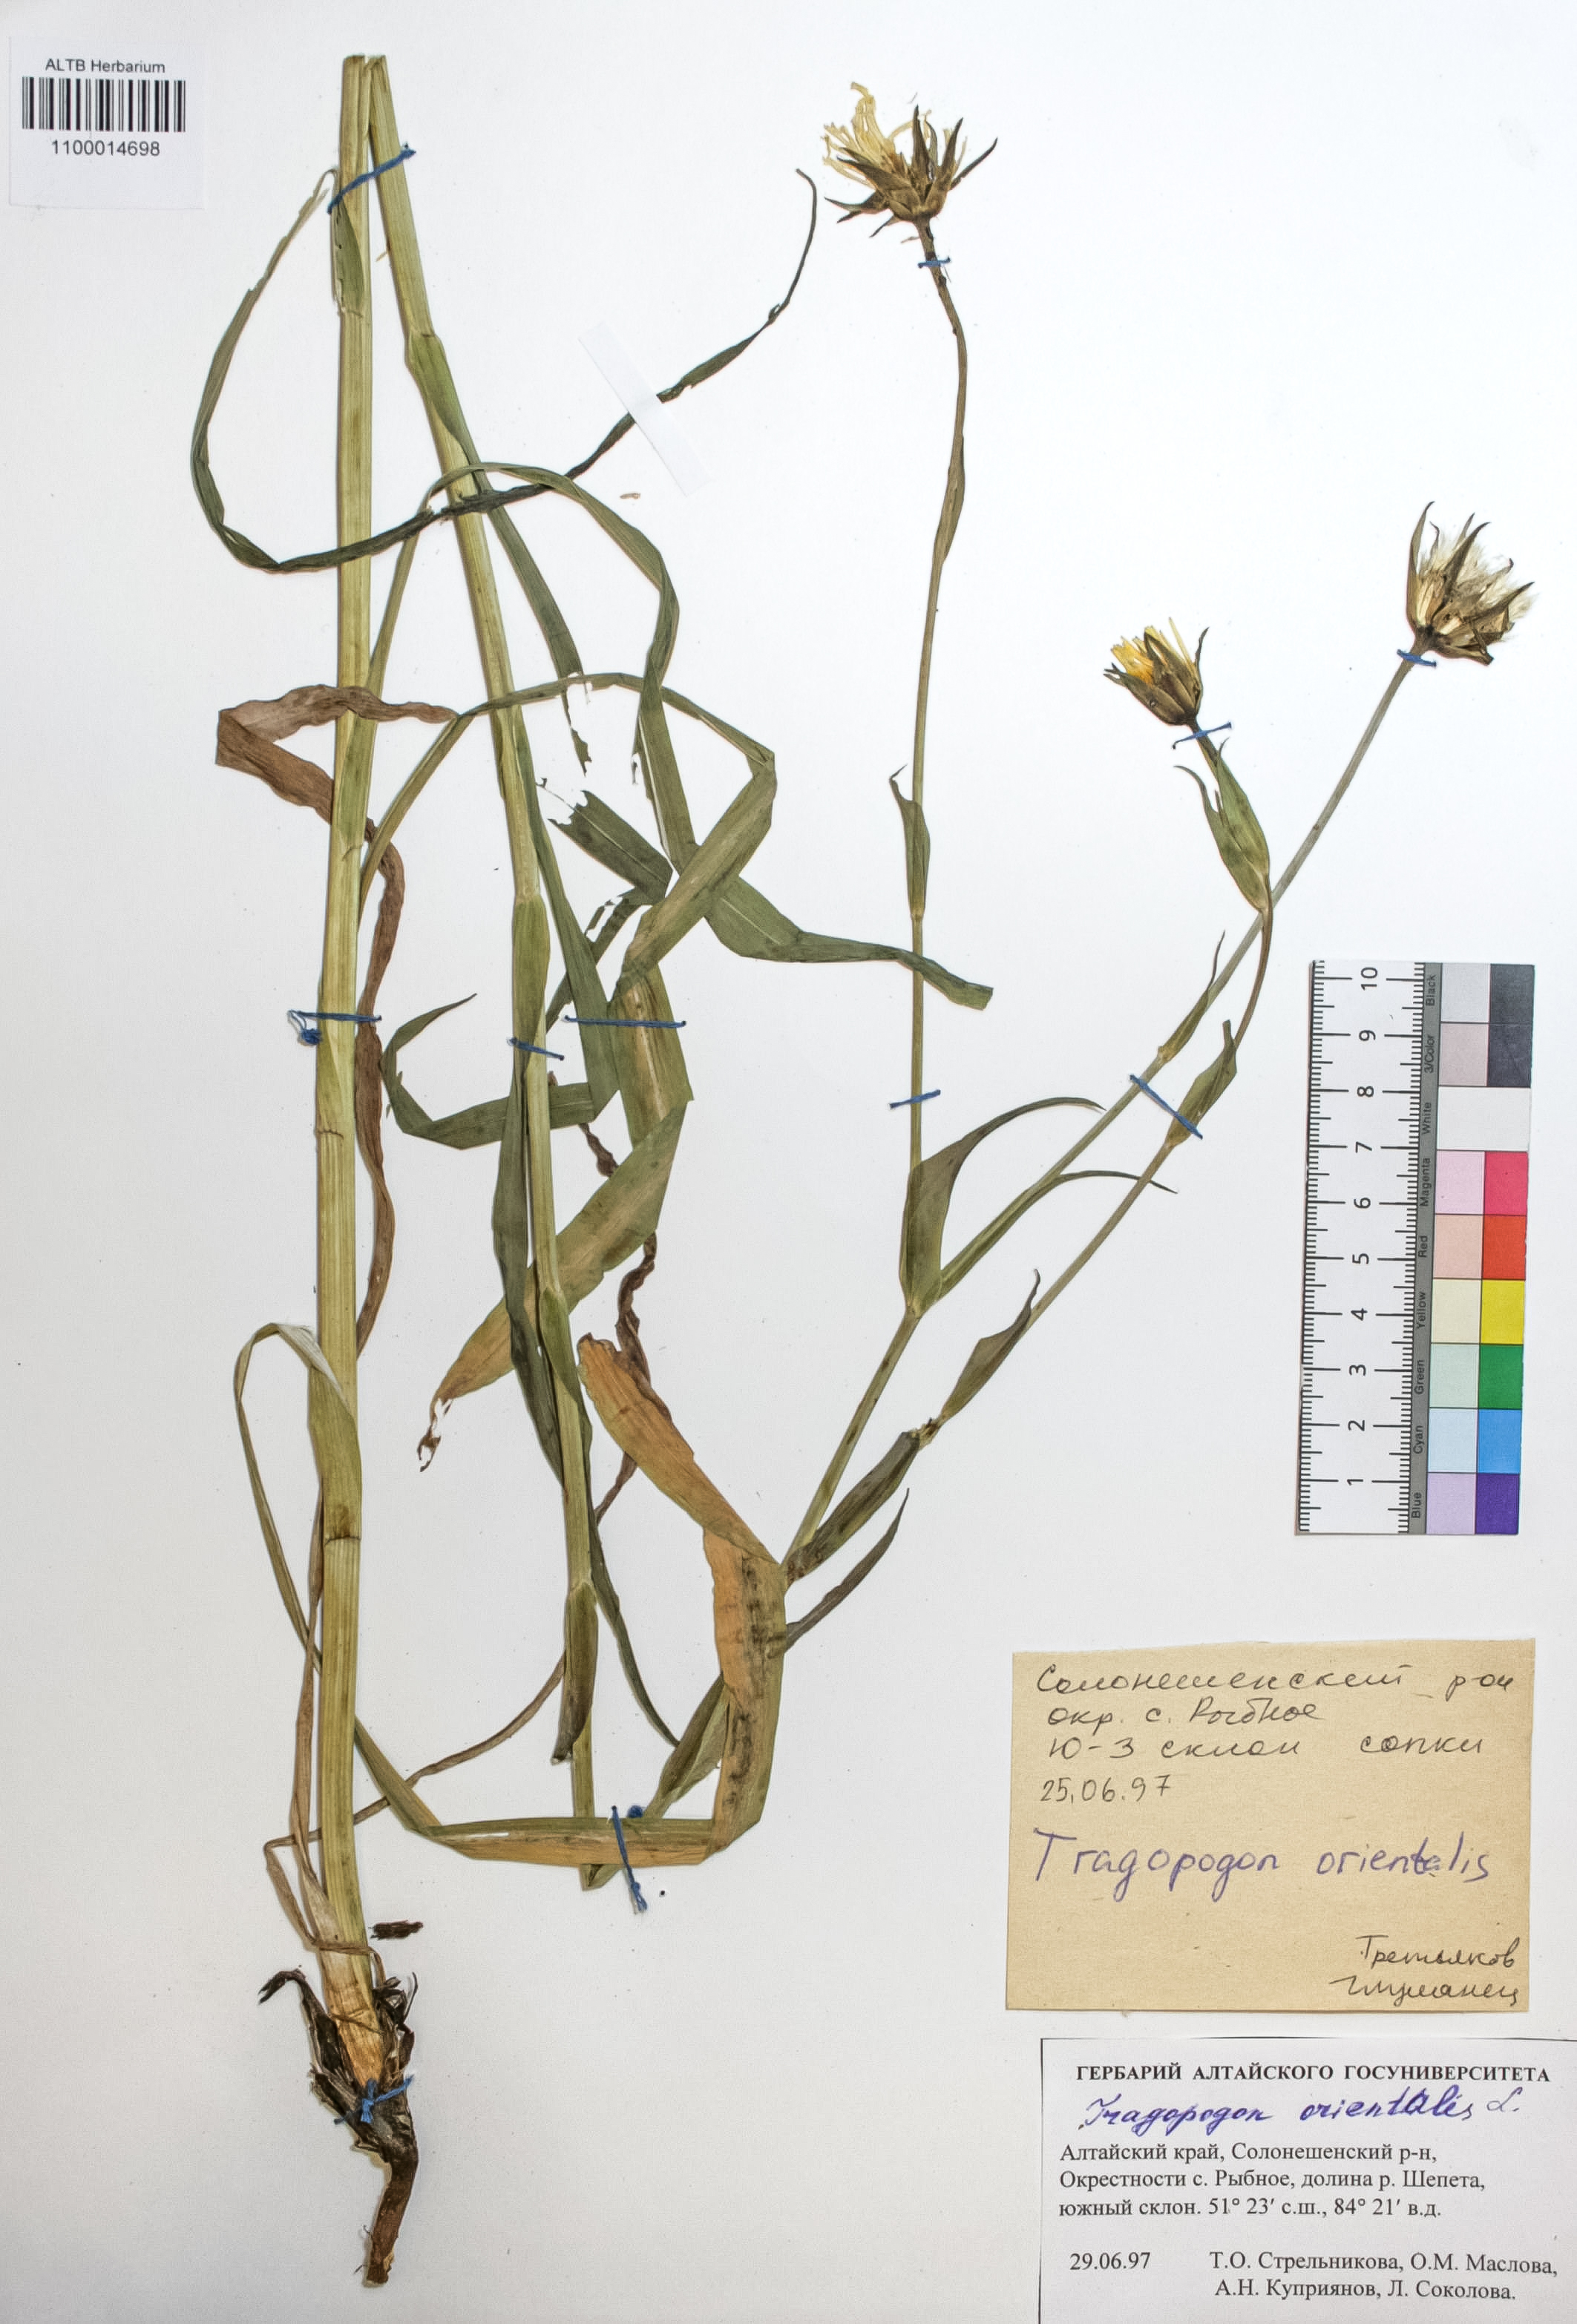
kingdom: Plantae
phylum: Tracheophyta
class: Magnoliopsida
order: Asterales
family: Asteraceae
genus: Tragopogon
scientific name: Tragopogon orientalis
